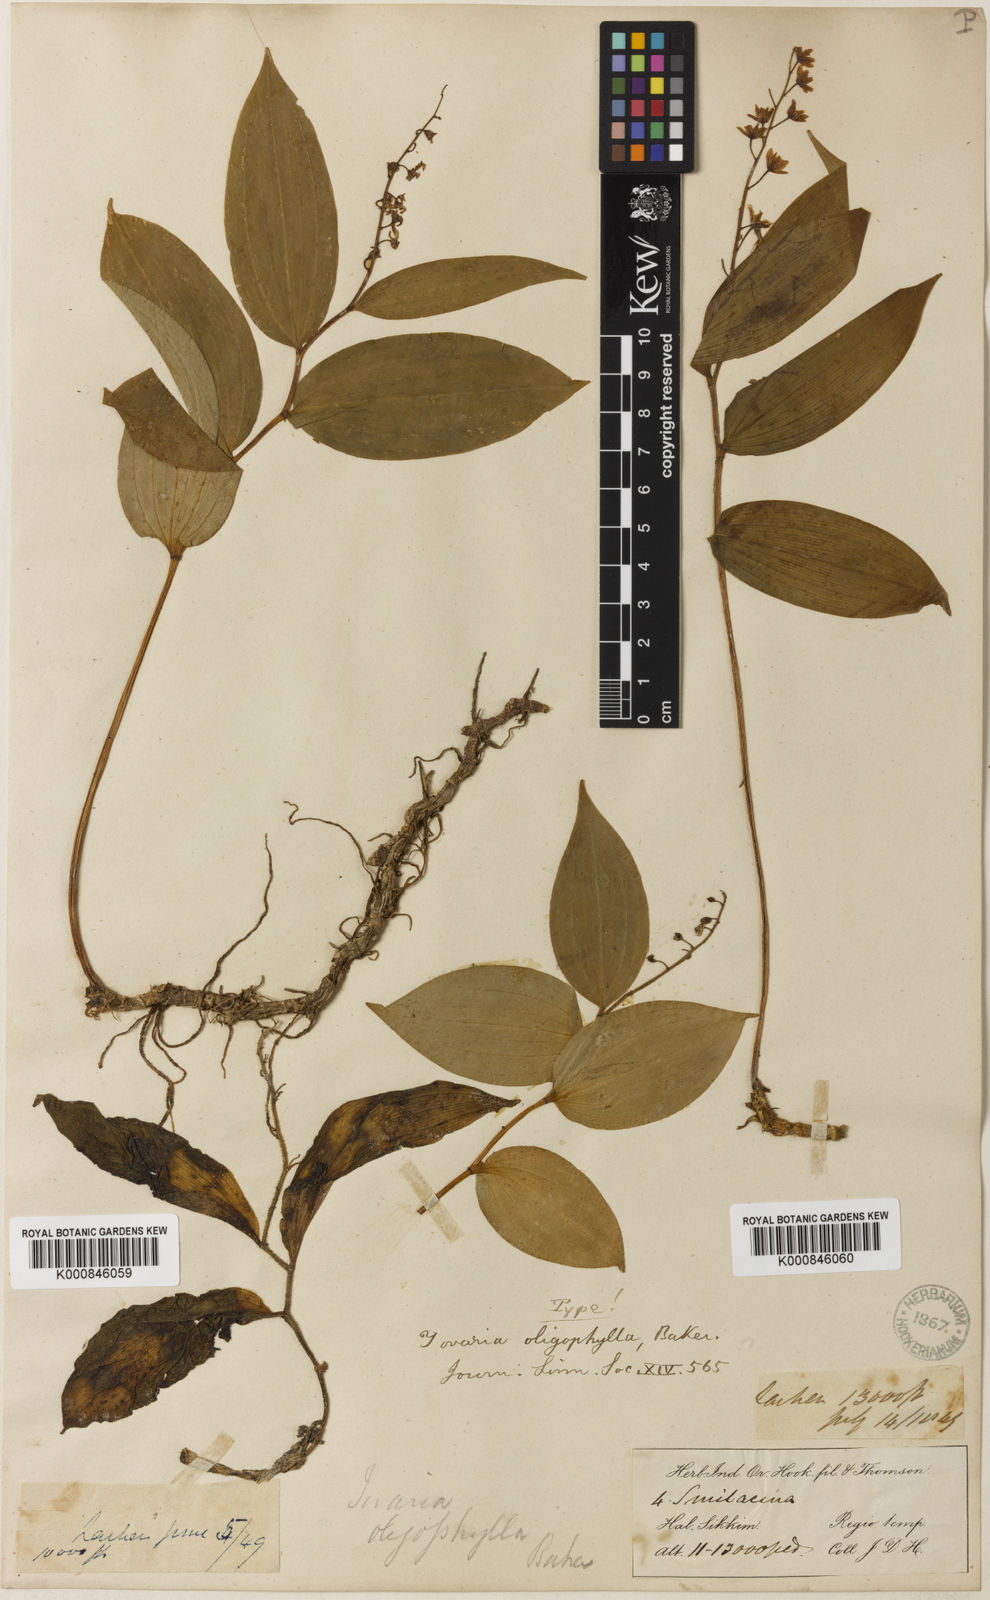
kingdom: Plantae
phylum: Tracheophyta
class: Liliopsida
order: Asparagales
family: Asparagaceae
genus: Maianthemum
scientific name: Maianthemum purpureum
